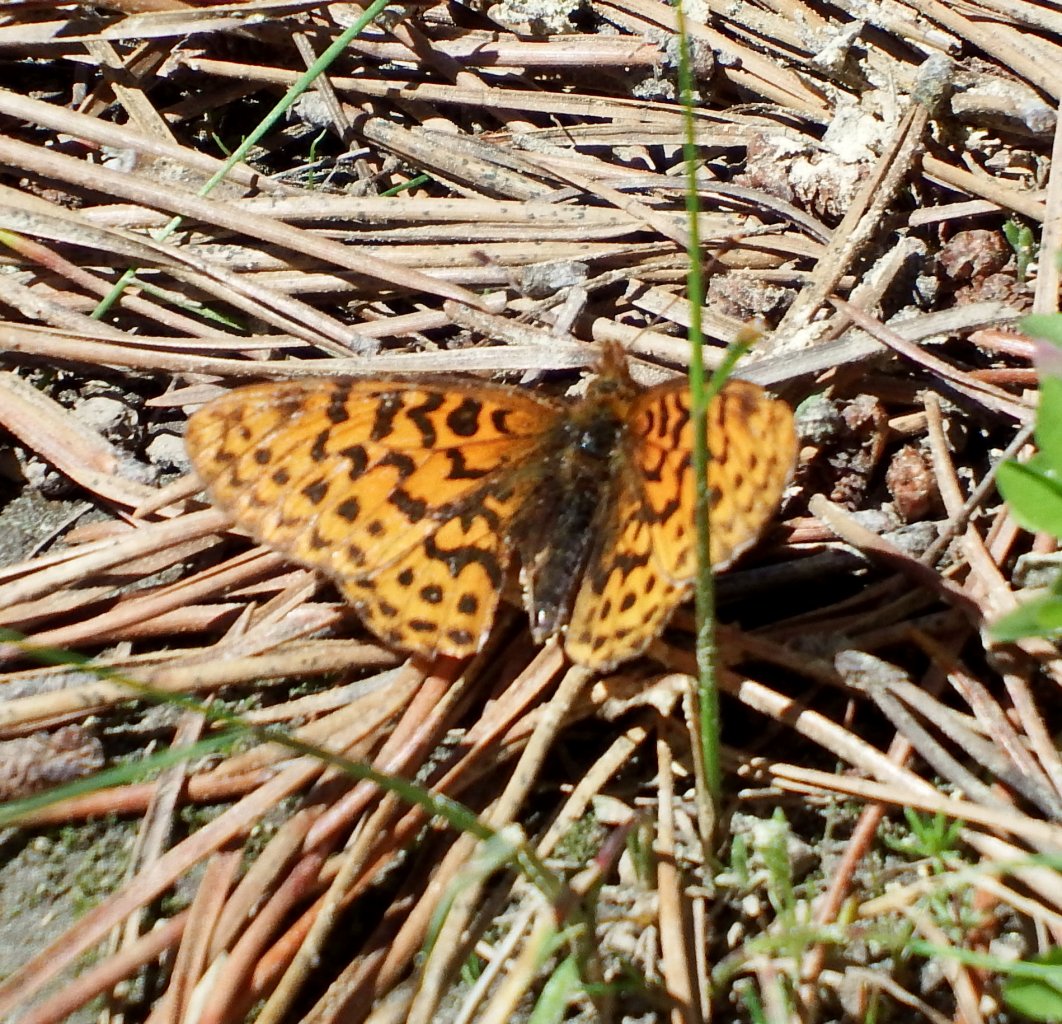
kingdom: Animalia
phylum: Arthropoda
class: Insecta
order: Lepidoptera
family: Nymphalidae
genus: Boloria
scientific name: Boloria epithore
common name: Pacific Fritillary
